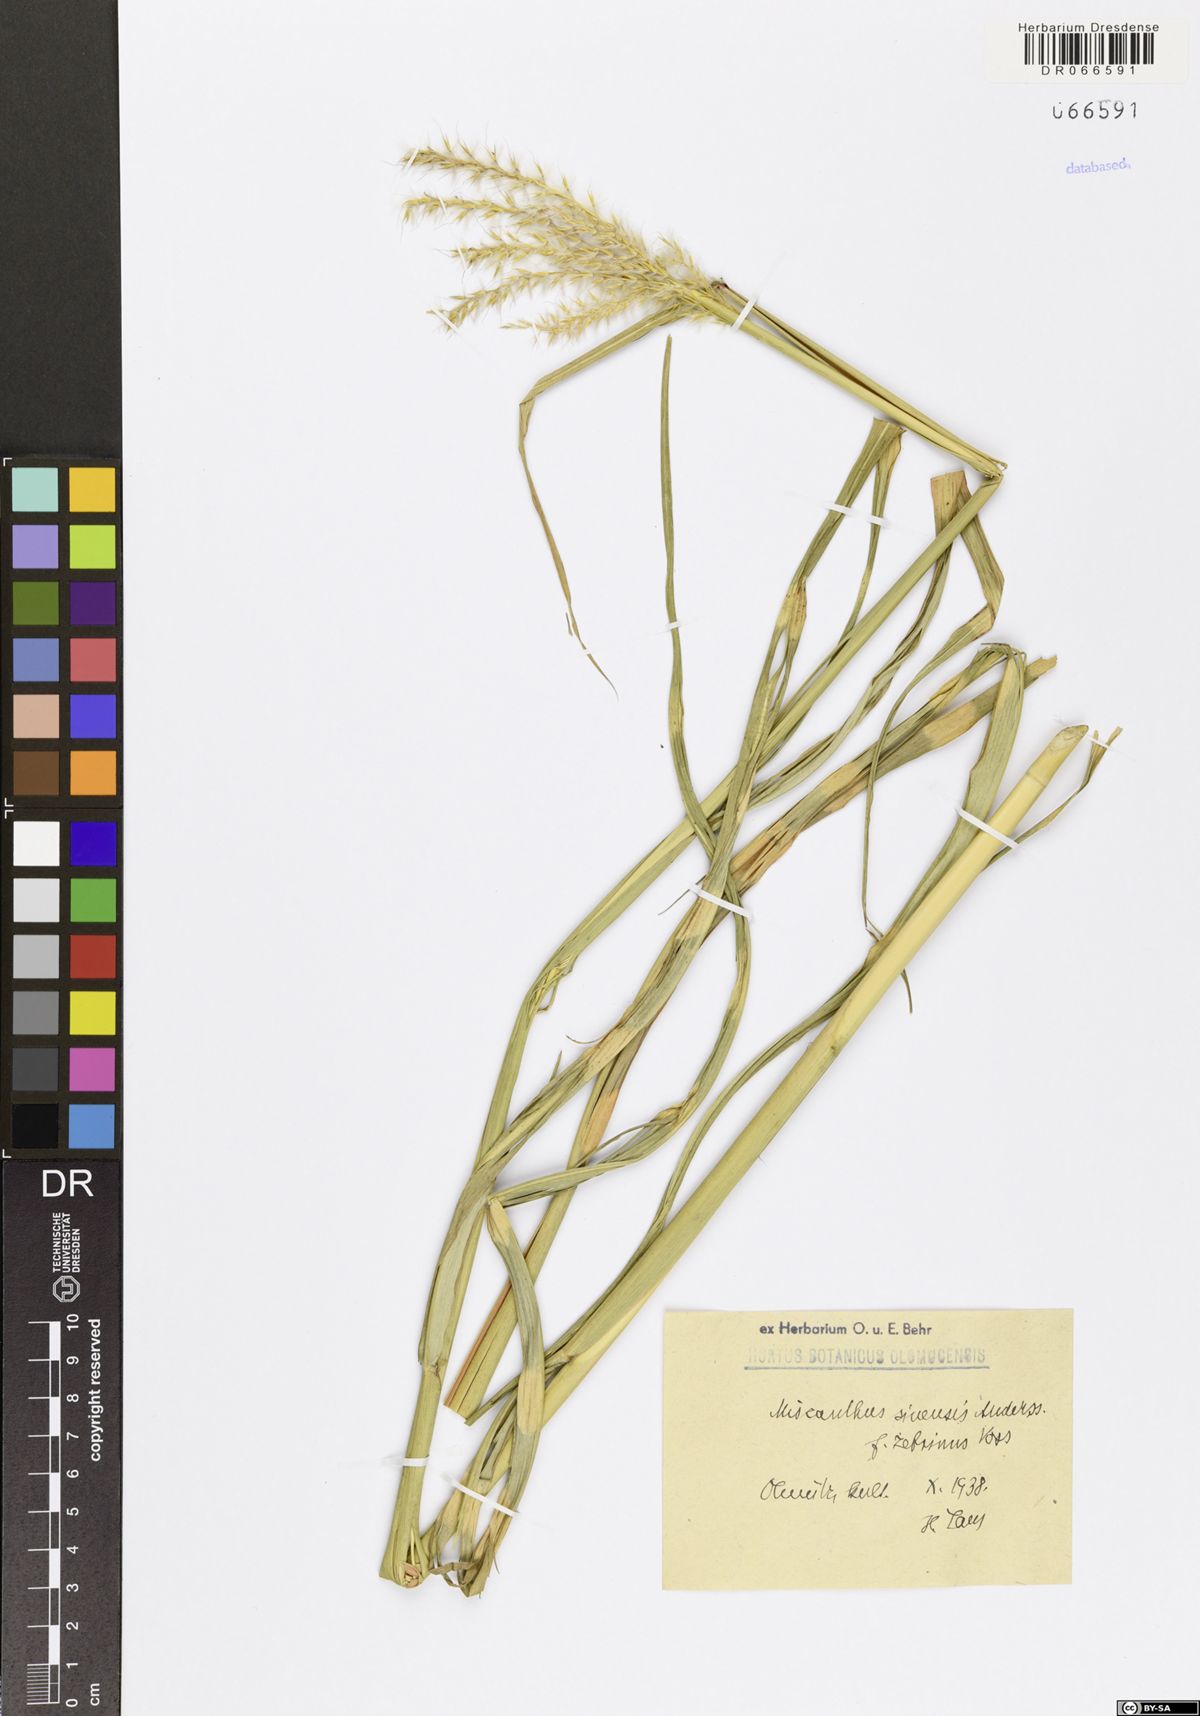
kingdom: Plantae
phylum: Tracheophyta
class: Liliopsida
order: Poales
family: Poaceae
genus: Miscanthus
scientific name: Miscanthus sinensis
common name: Chinese silvergrass
